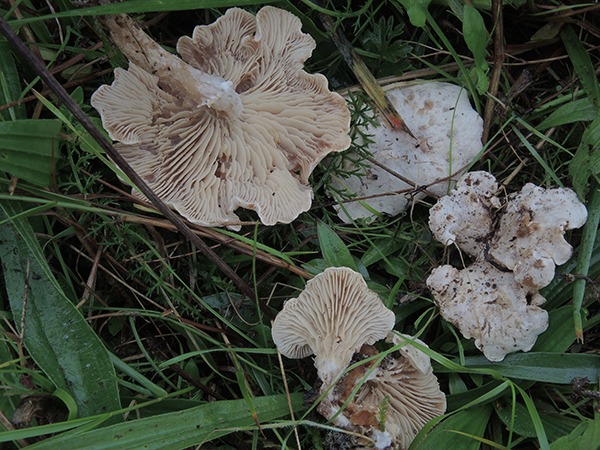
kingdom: Fungi
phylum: Basidiomycota
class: Agaricomycetes
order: Agaricales
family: Tricholomataceae
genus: Clitocybe
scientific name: Clitocybe rivulosa
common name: eng-tragthat
